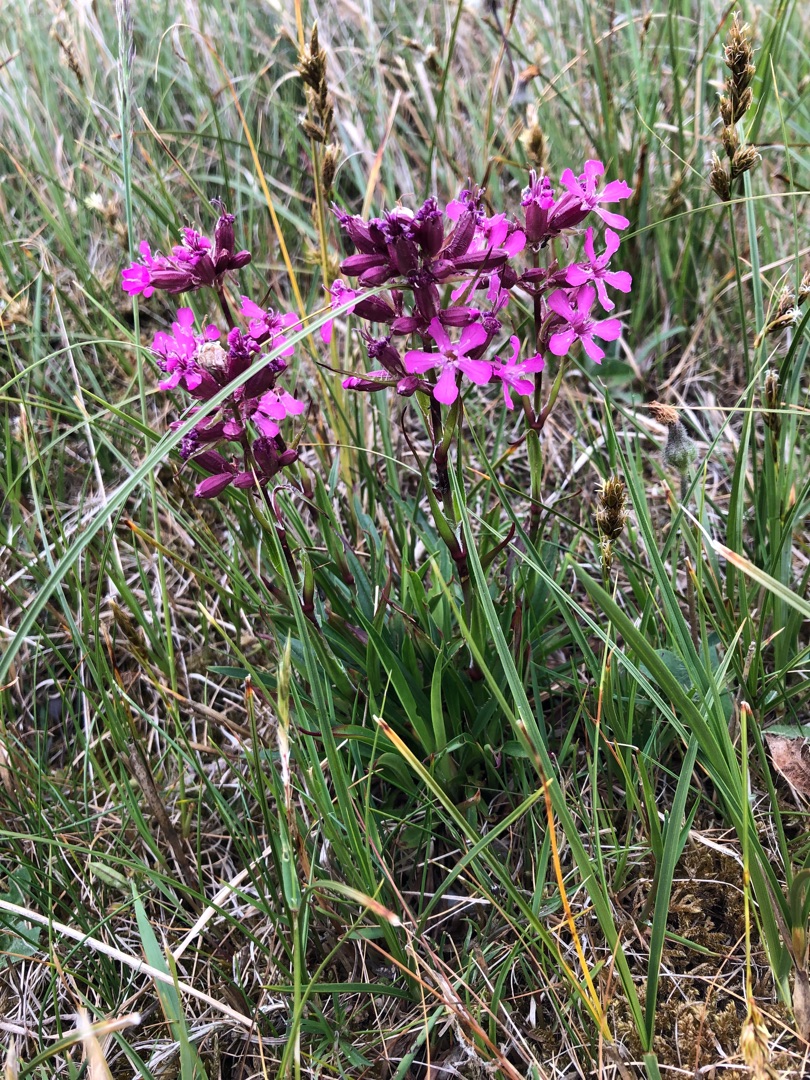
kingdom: Plantae
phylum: Tracheophyta
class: Magnoliopsida
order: Caryophyllales
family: Caryophyllaceae
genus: Viscaria
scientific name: Viscaria vulgaris
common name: Tjærenellike
